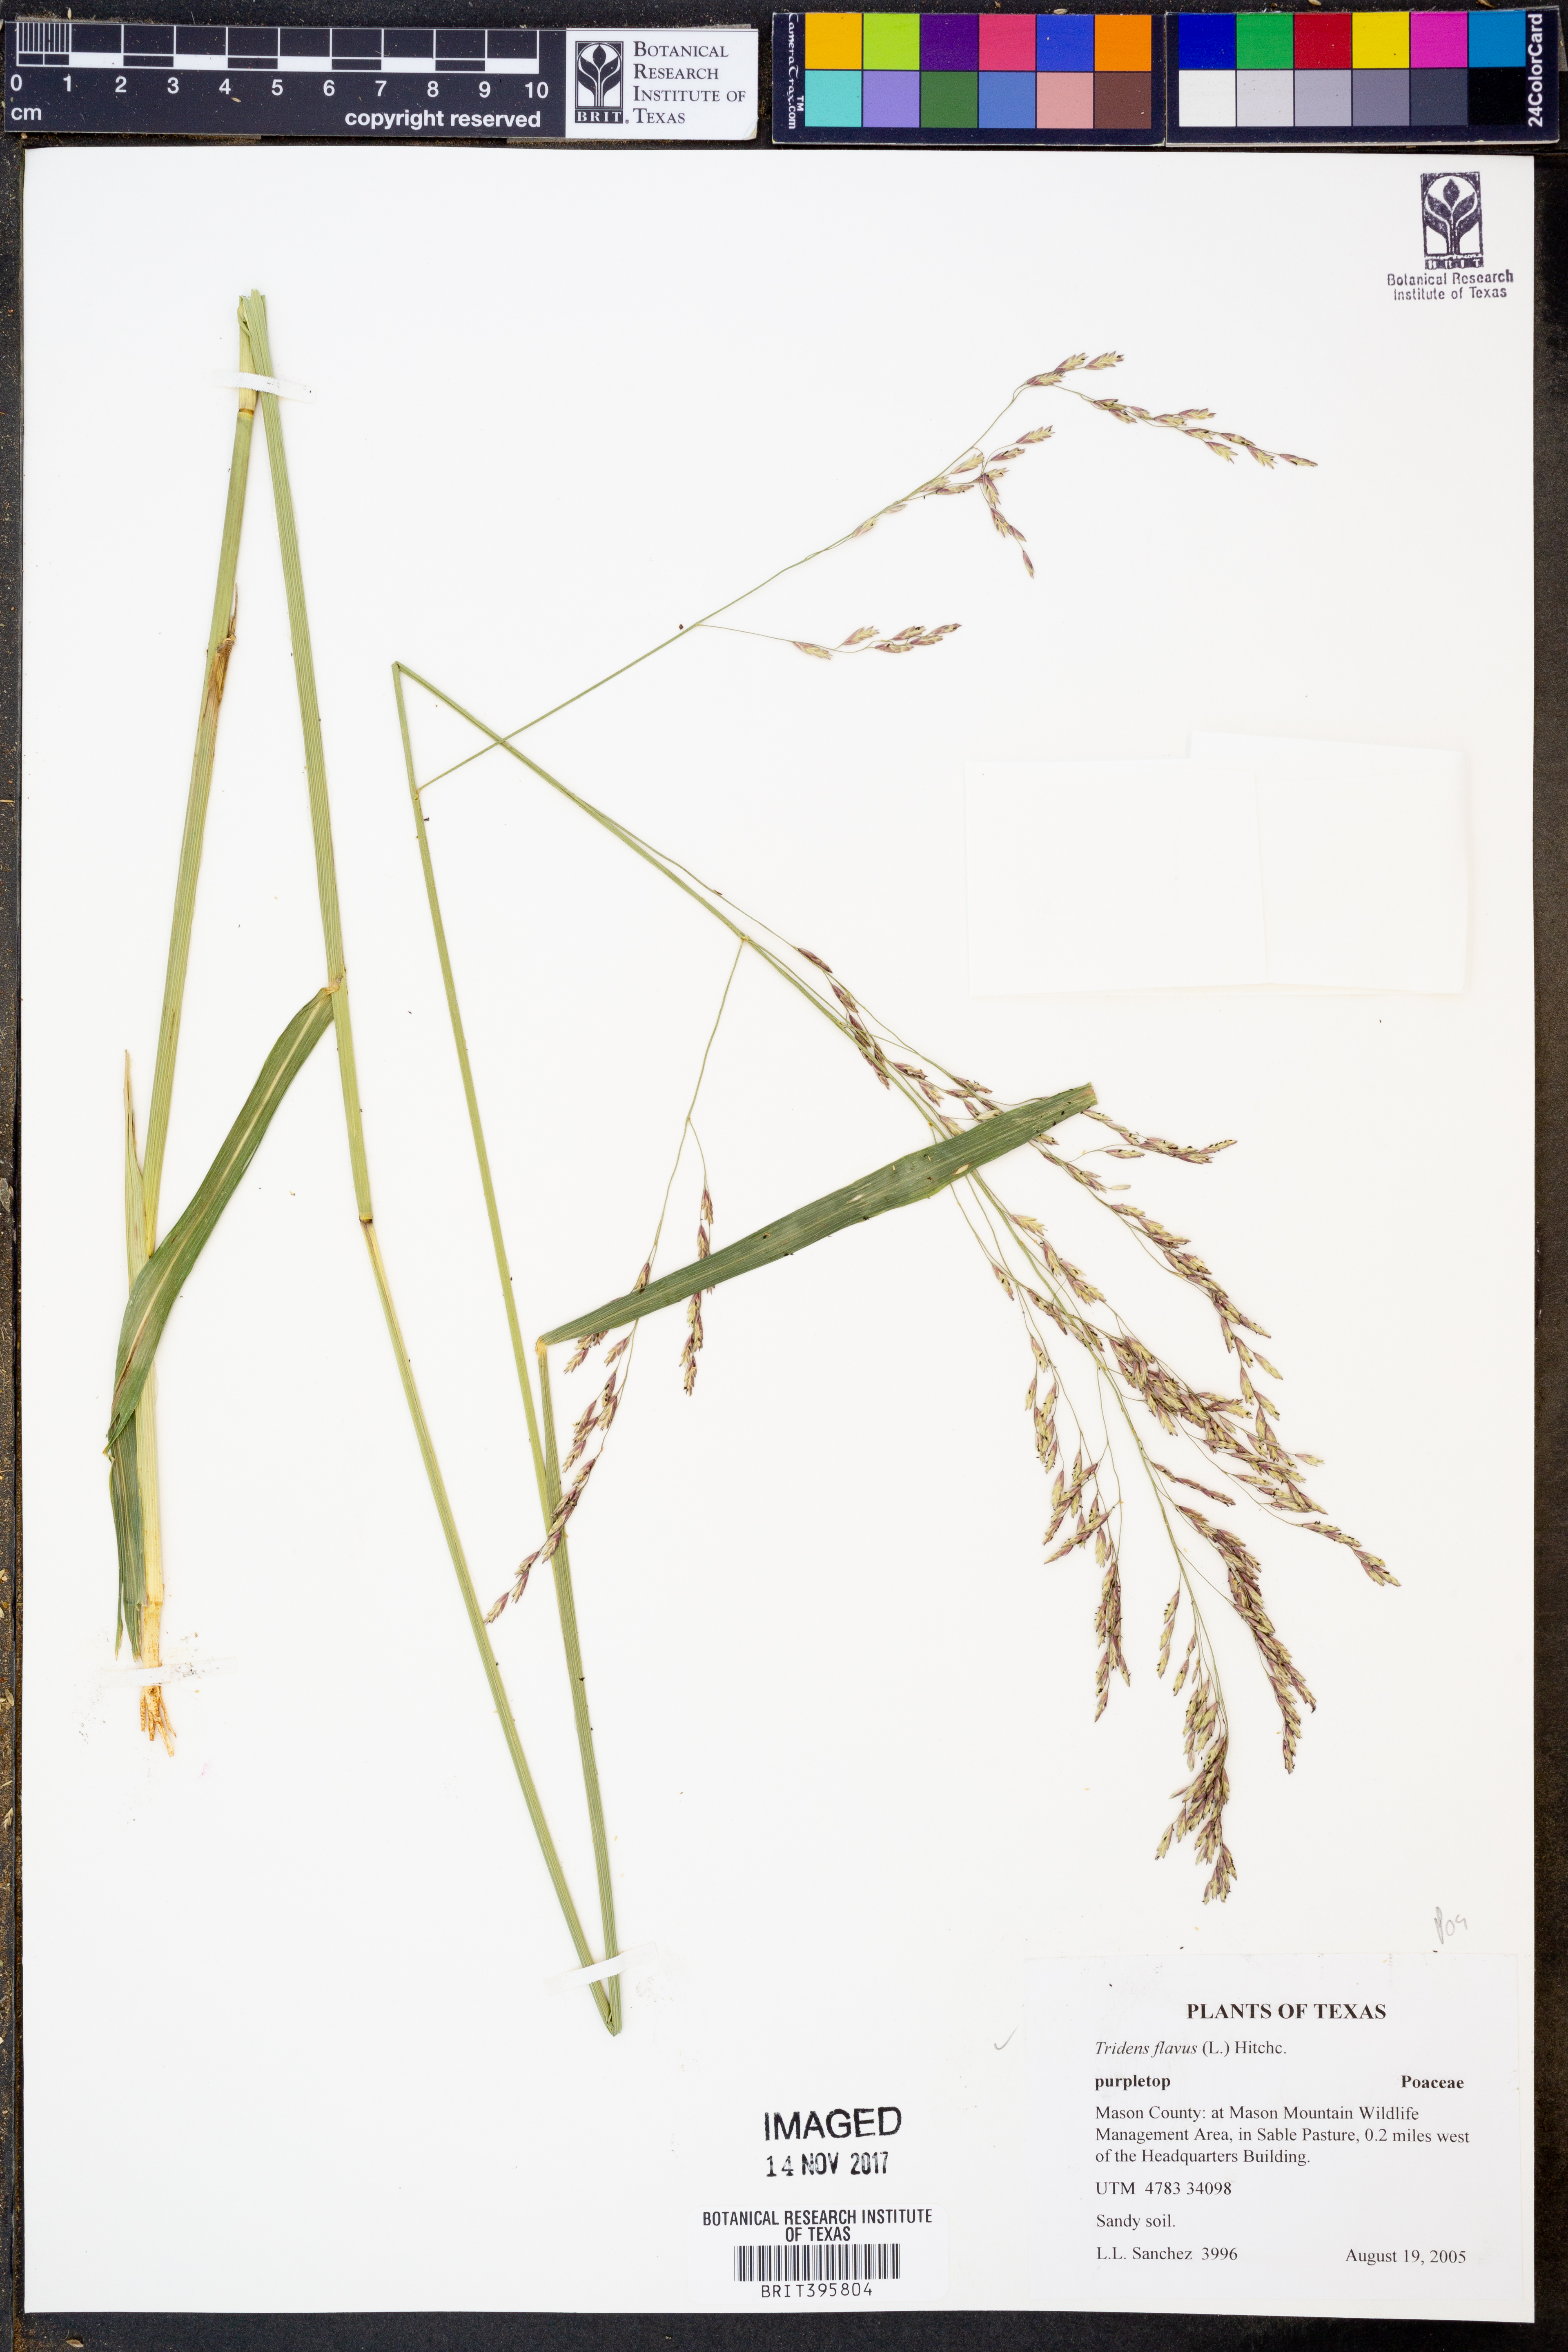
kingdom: Plantae
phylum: Tracheophyta
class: Liliopsida
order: Poales
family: Poaceae
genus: Tridens
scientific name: Tridens flavus
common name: Purpletop
